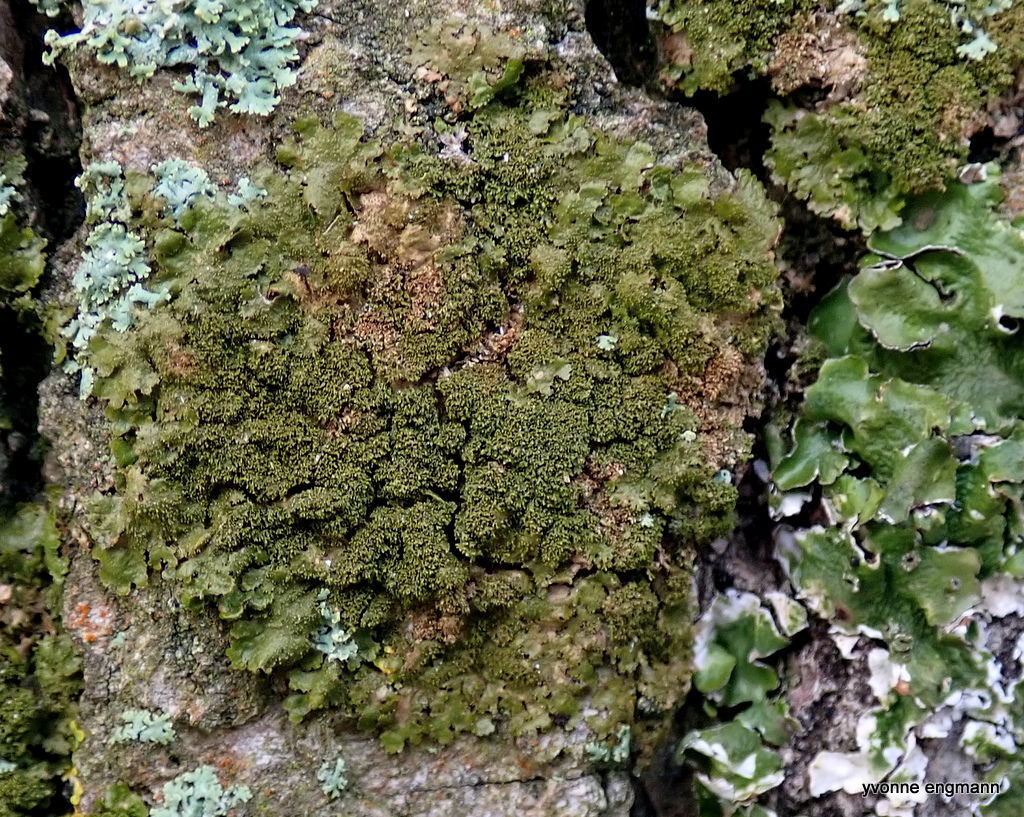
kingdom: Fungi
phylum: Ascomycota
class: Lecanoromycetes
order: Lecanorales
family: Parmeliaceae
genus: Melanohalea
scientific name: Melanohalea exasperatula
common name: kølle-skållav
